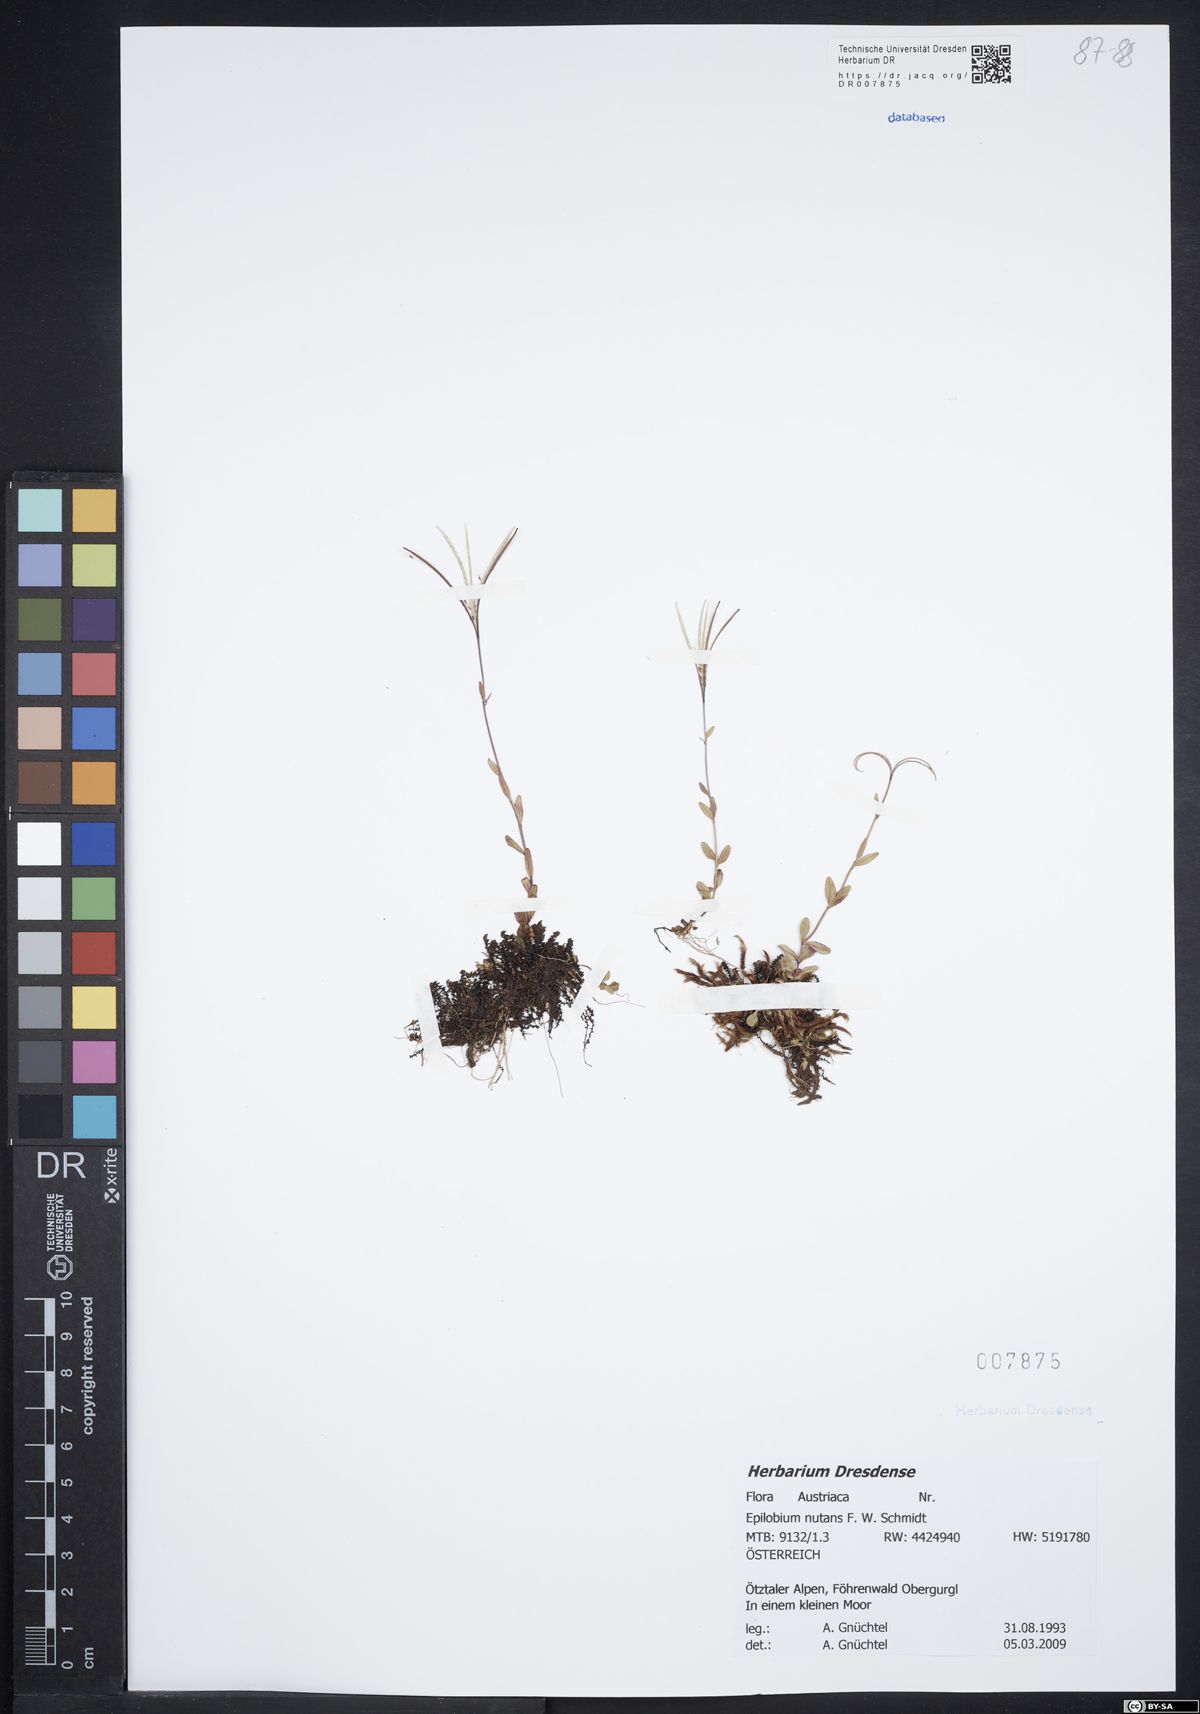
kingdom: Plantae
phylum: Tracheophyta
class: Magnoliopsida
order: Myrtales
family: Onagraceae
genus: Epilobium
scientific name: Epilobium nutans
